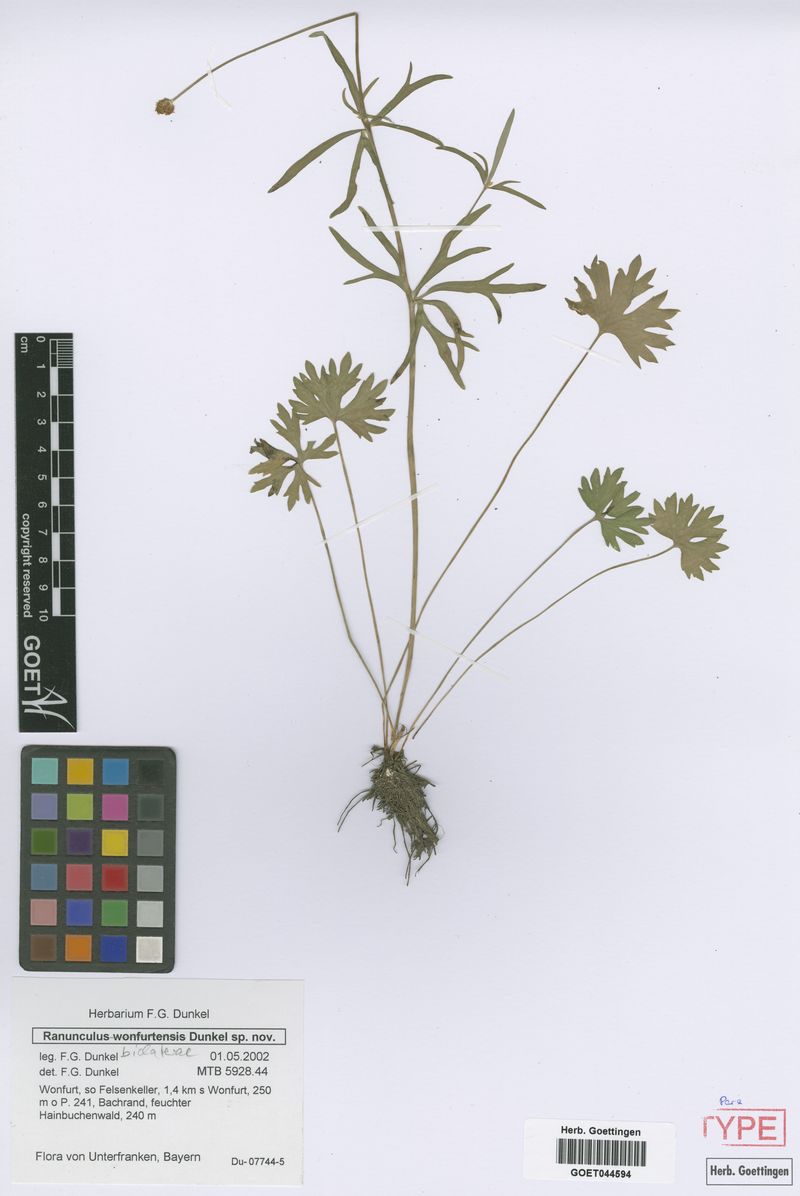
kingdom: Plantae
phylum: Tracheophyta
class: Magnoliopsida
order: Ranunculales
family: Ranunculaceae
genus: Ranunculus
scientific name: Ranunculus biclaterae
